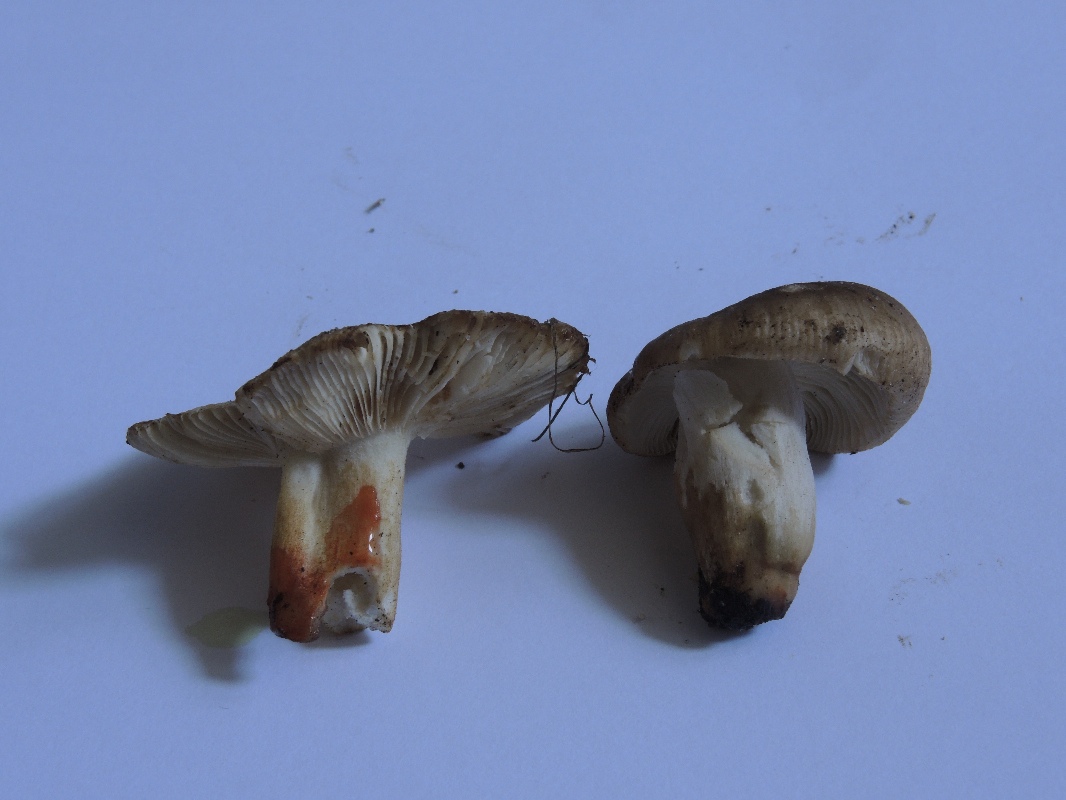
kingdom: Fungi
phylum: Basidiomycota
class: Agaricomycetes
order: Russulales
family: Russulaceae
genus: Russula
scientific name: Russula insignis
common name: gulfodet kam-skørhat
